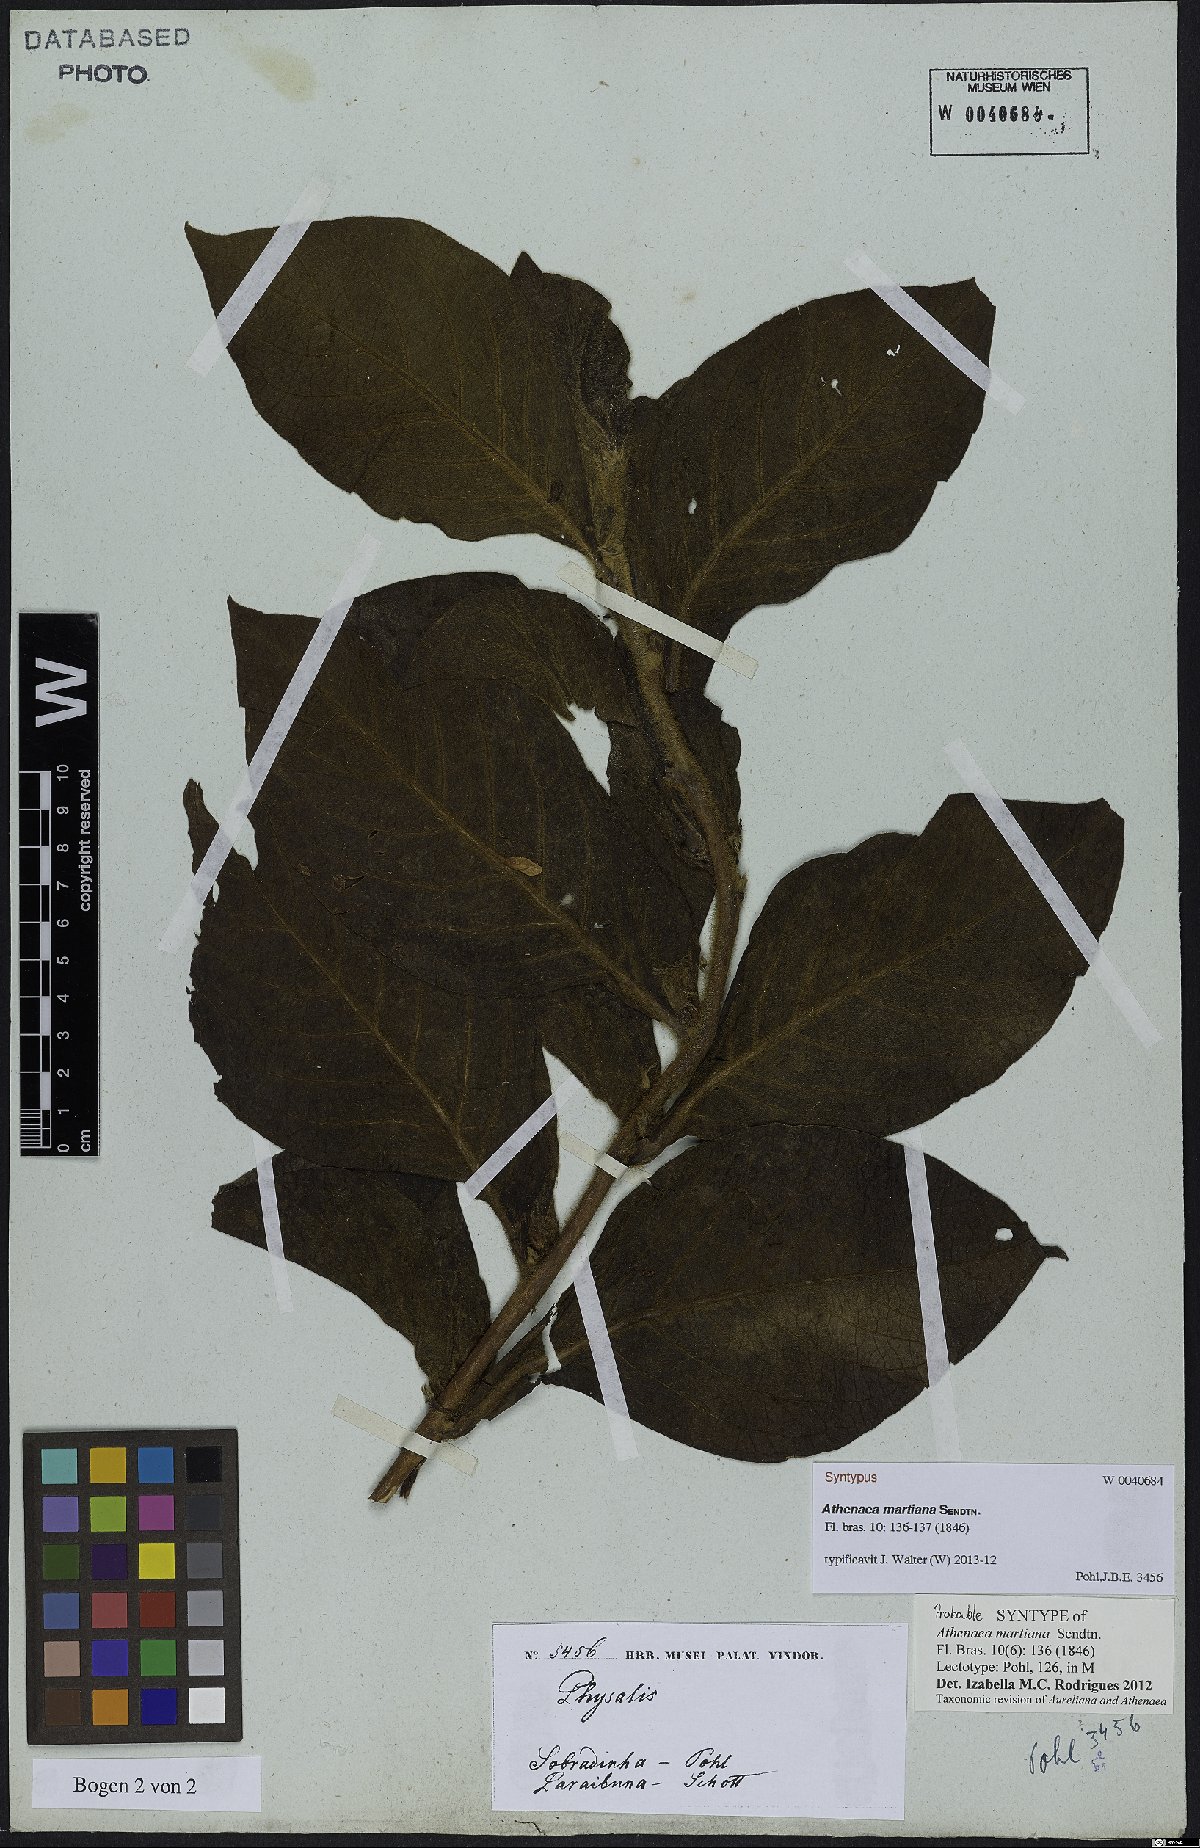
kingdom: Plantae
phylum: Tracheophyta
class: Magnoliopsida
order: Solanales
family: Solanaceae
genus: Athenaea
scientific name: Athenaea martiana
